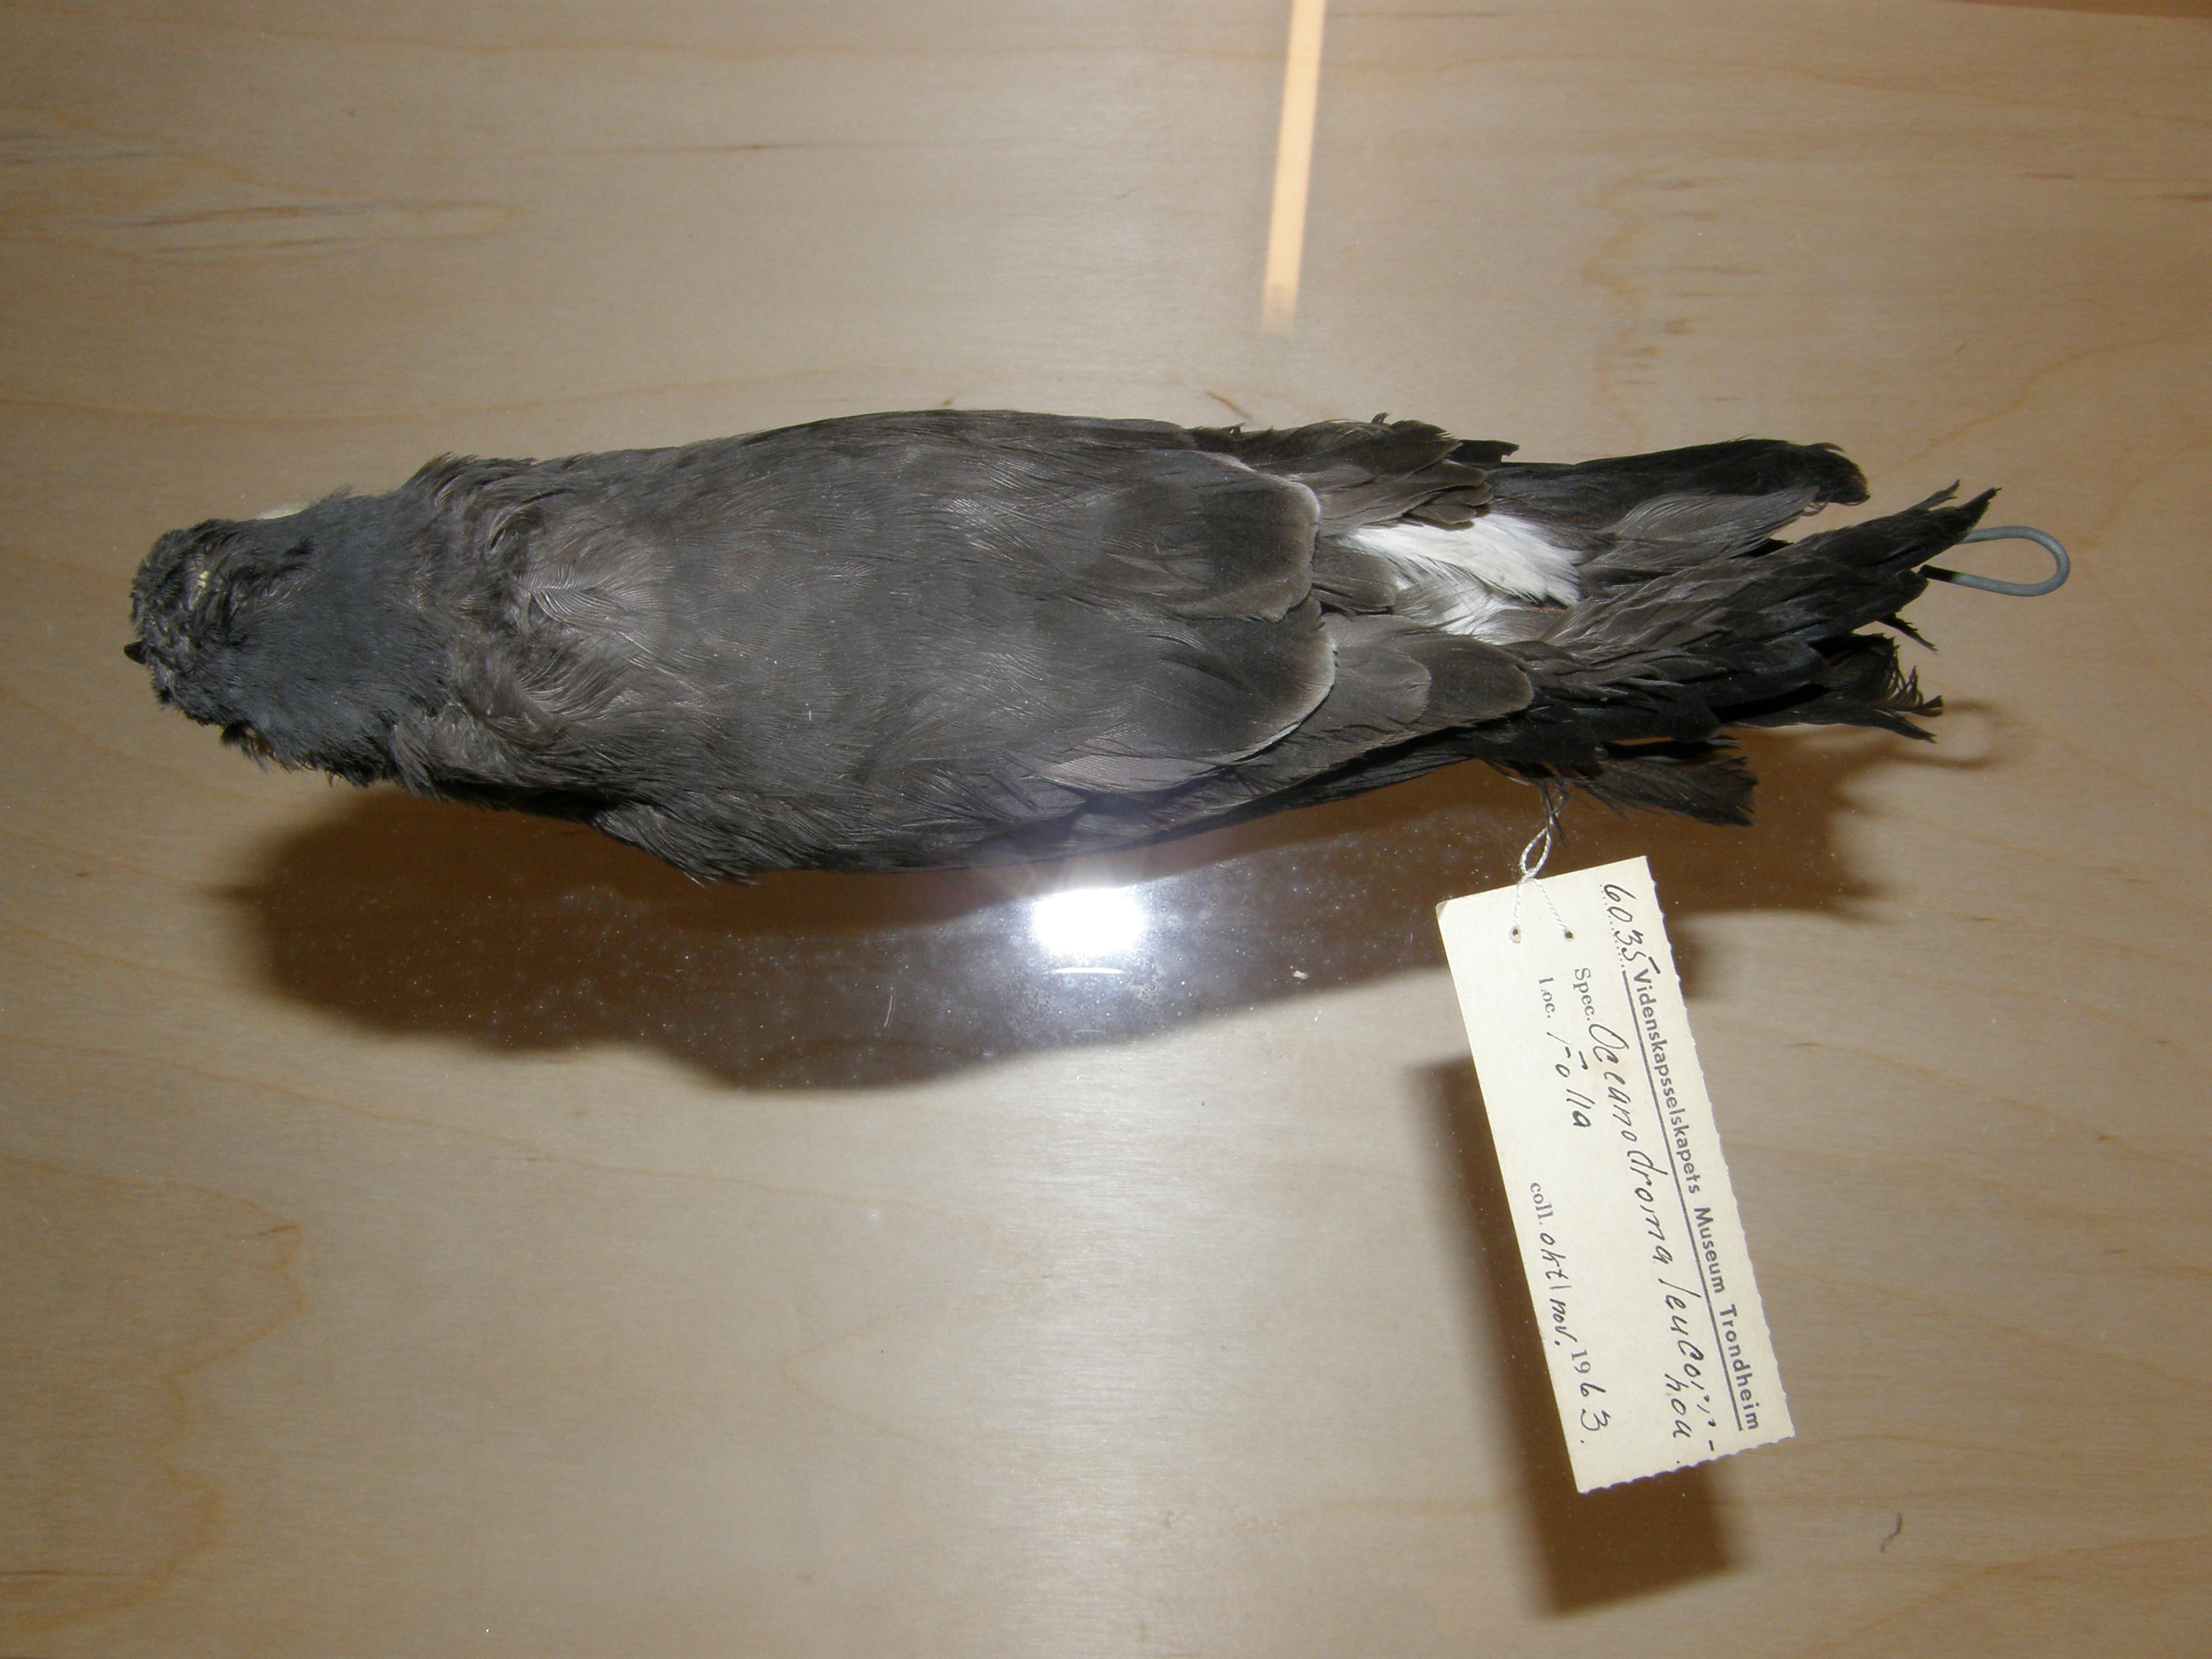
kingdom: Animalia
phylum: Chordata
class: Aves
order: Procellariiformes
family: Hydrobatidae
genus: Oceanodroma
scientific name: Oceanodroma leucorhoa
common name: Leach's storm-petrel
